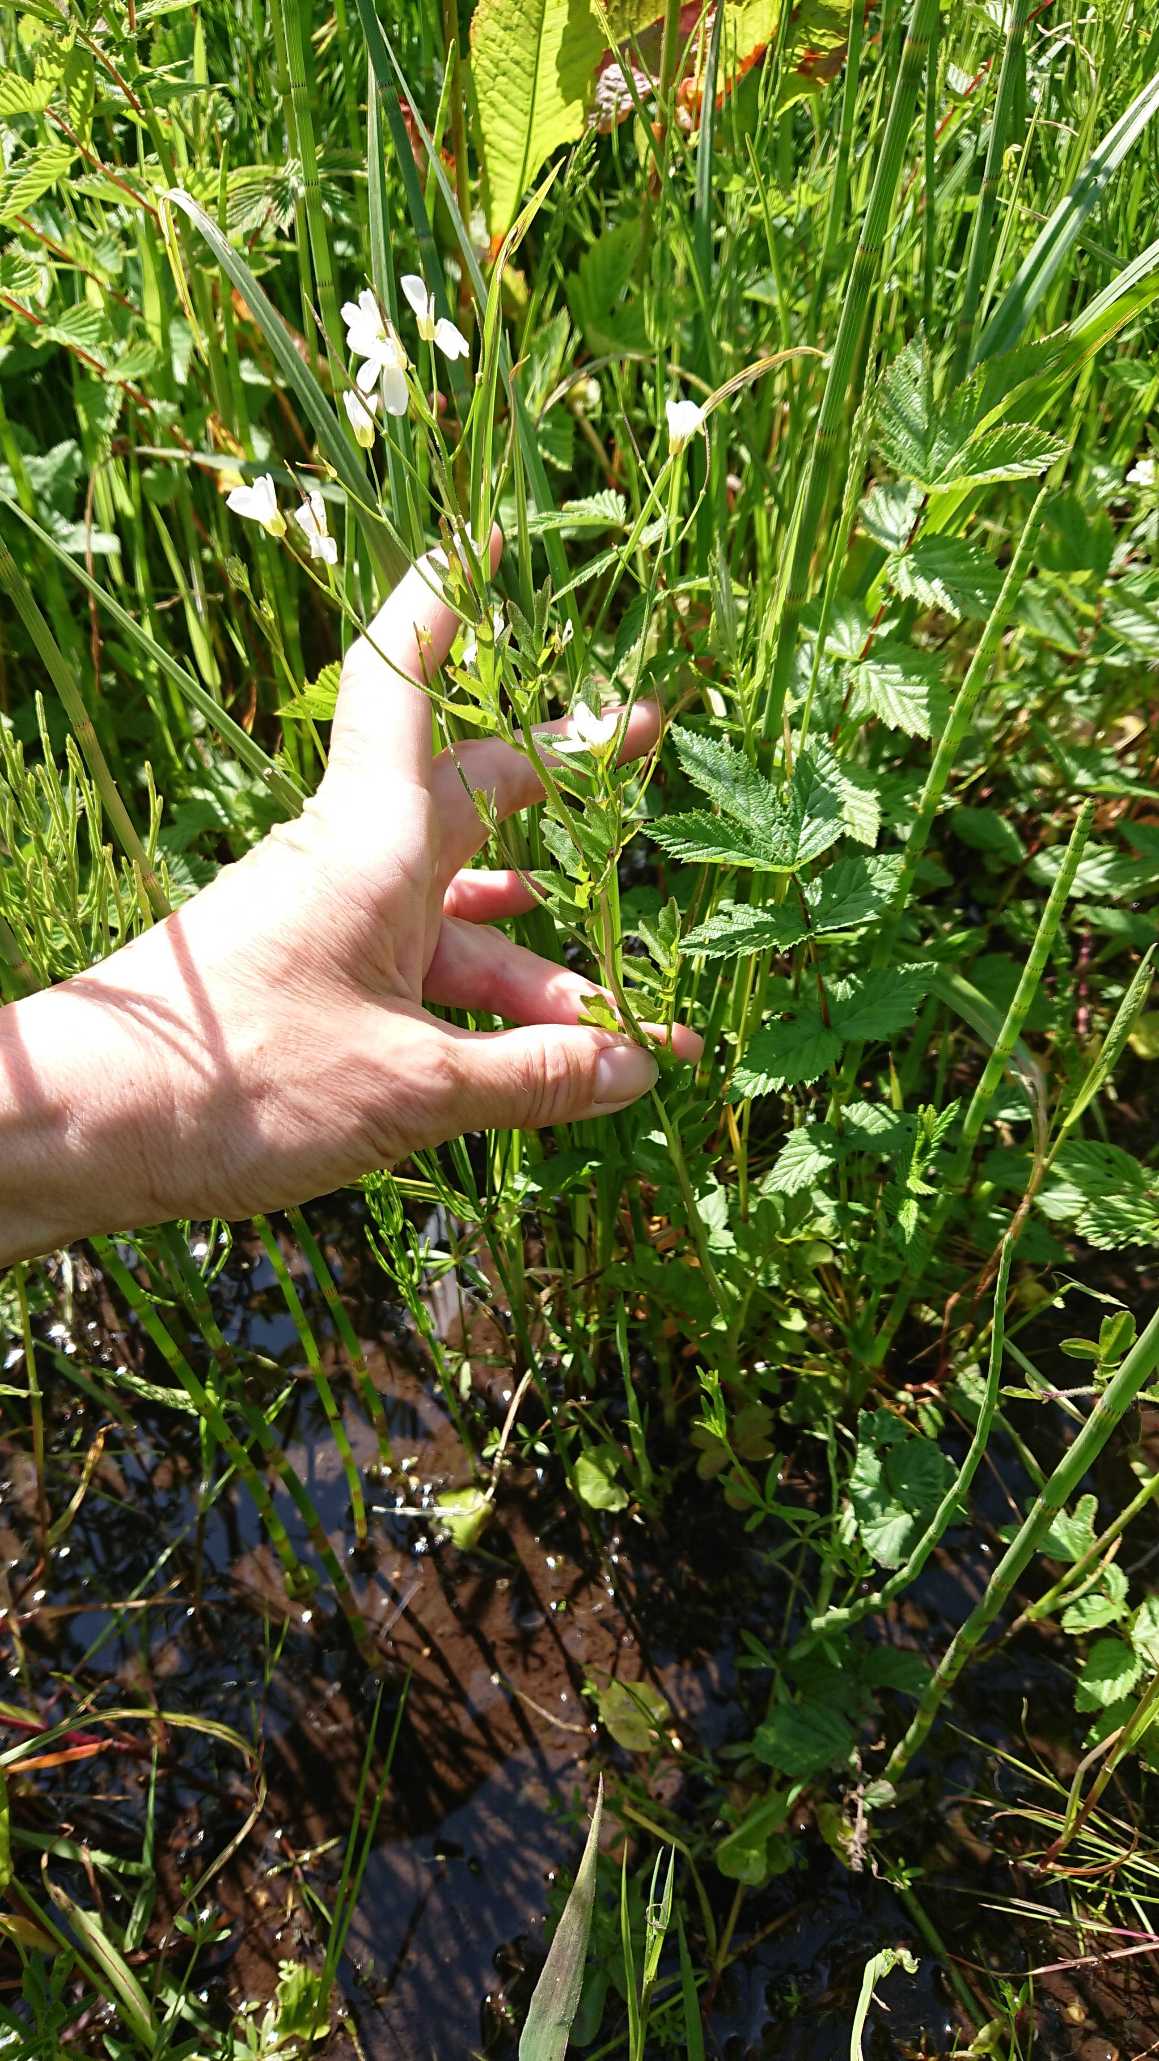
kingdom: Plantae
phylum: Tracheophyta
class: Magnoliopsida
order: Brassicales
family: Brassicaceae
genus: Cardamine
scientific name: Cardamine amara
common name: Vandkarse
